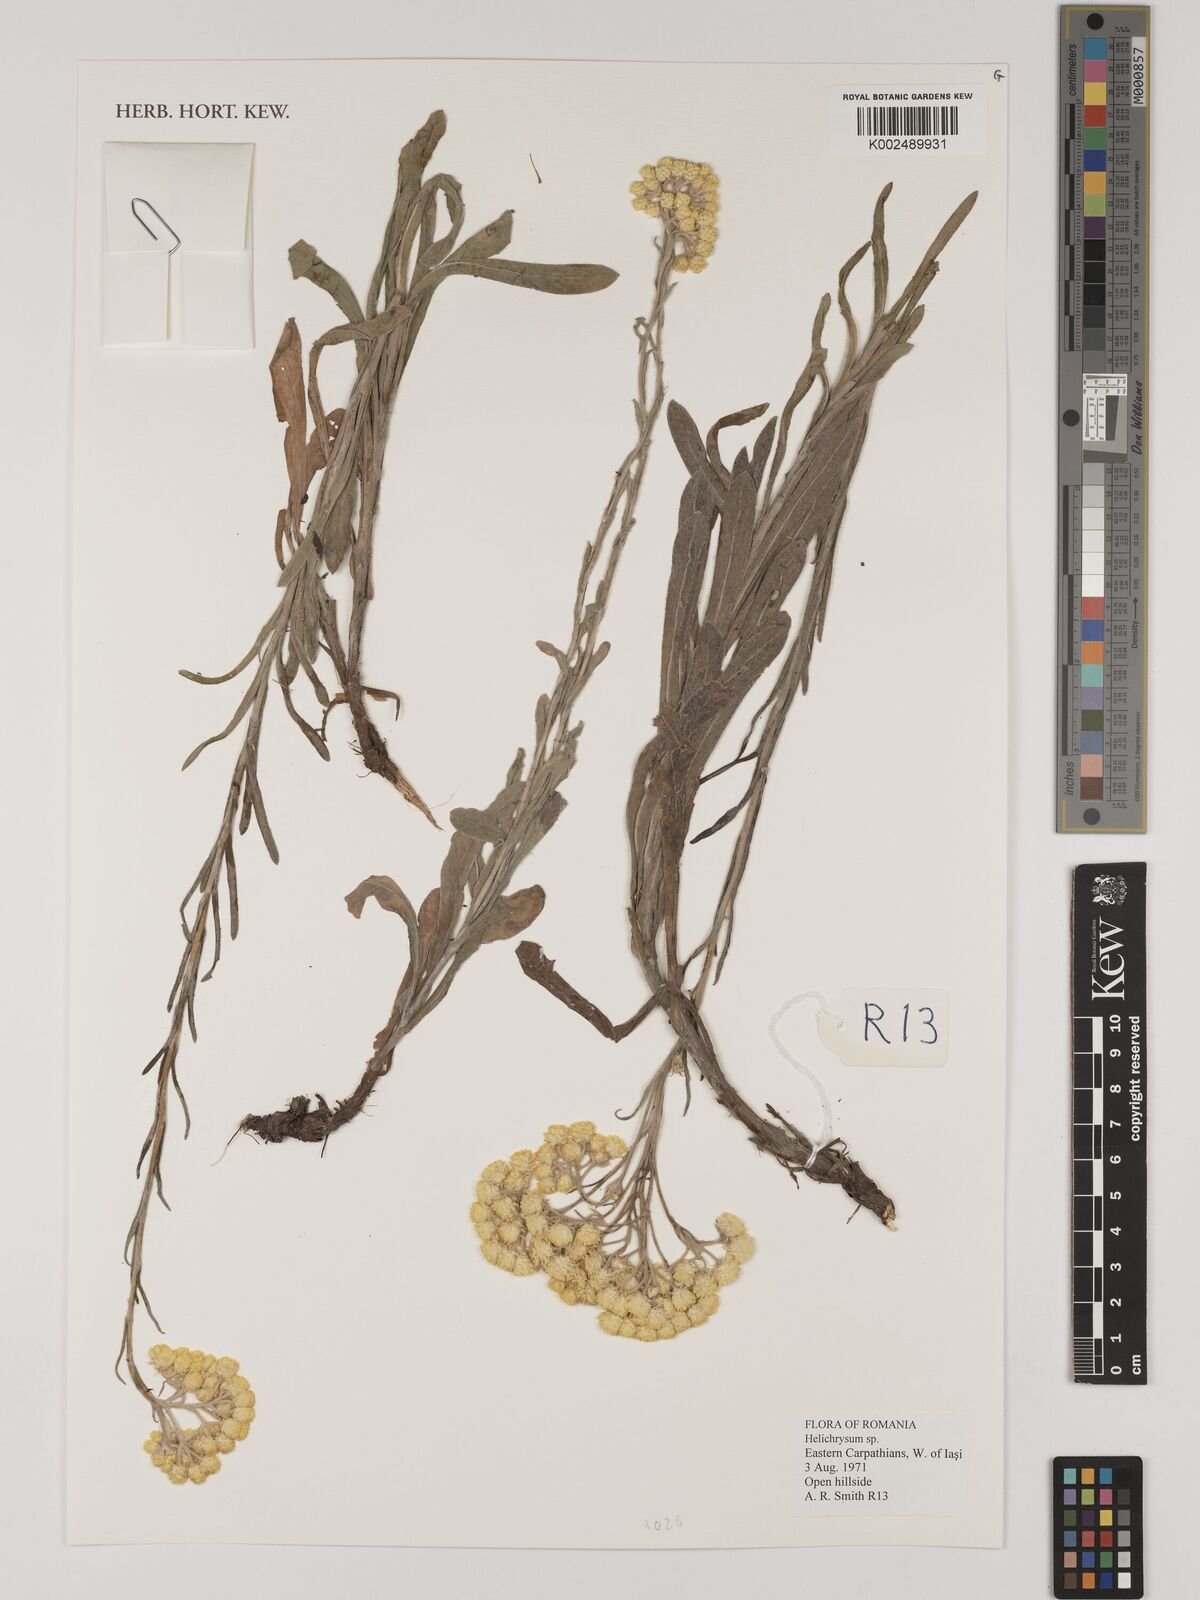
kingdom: Plantae
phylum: Tracheophyta
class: Magnoliopsida
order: Asterales
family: Asteraceae
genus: Helichrysum
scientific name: Helichrysum
